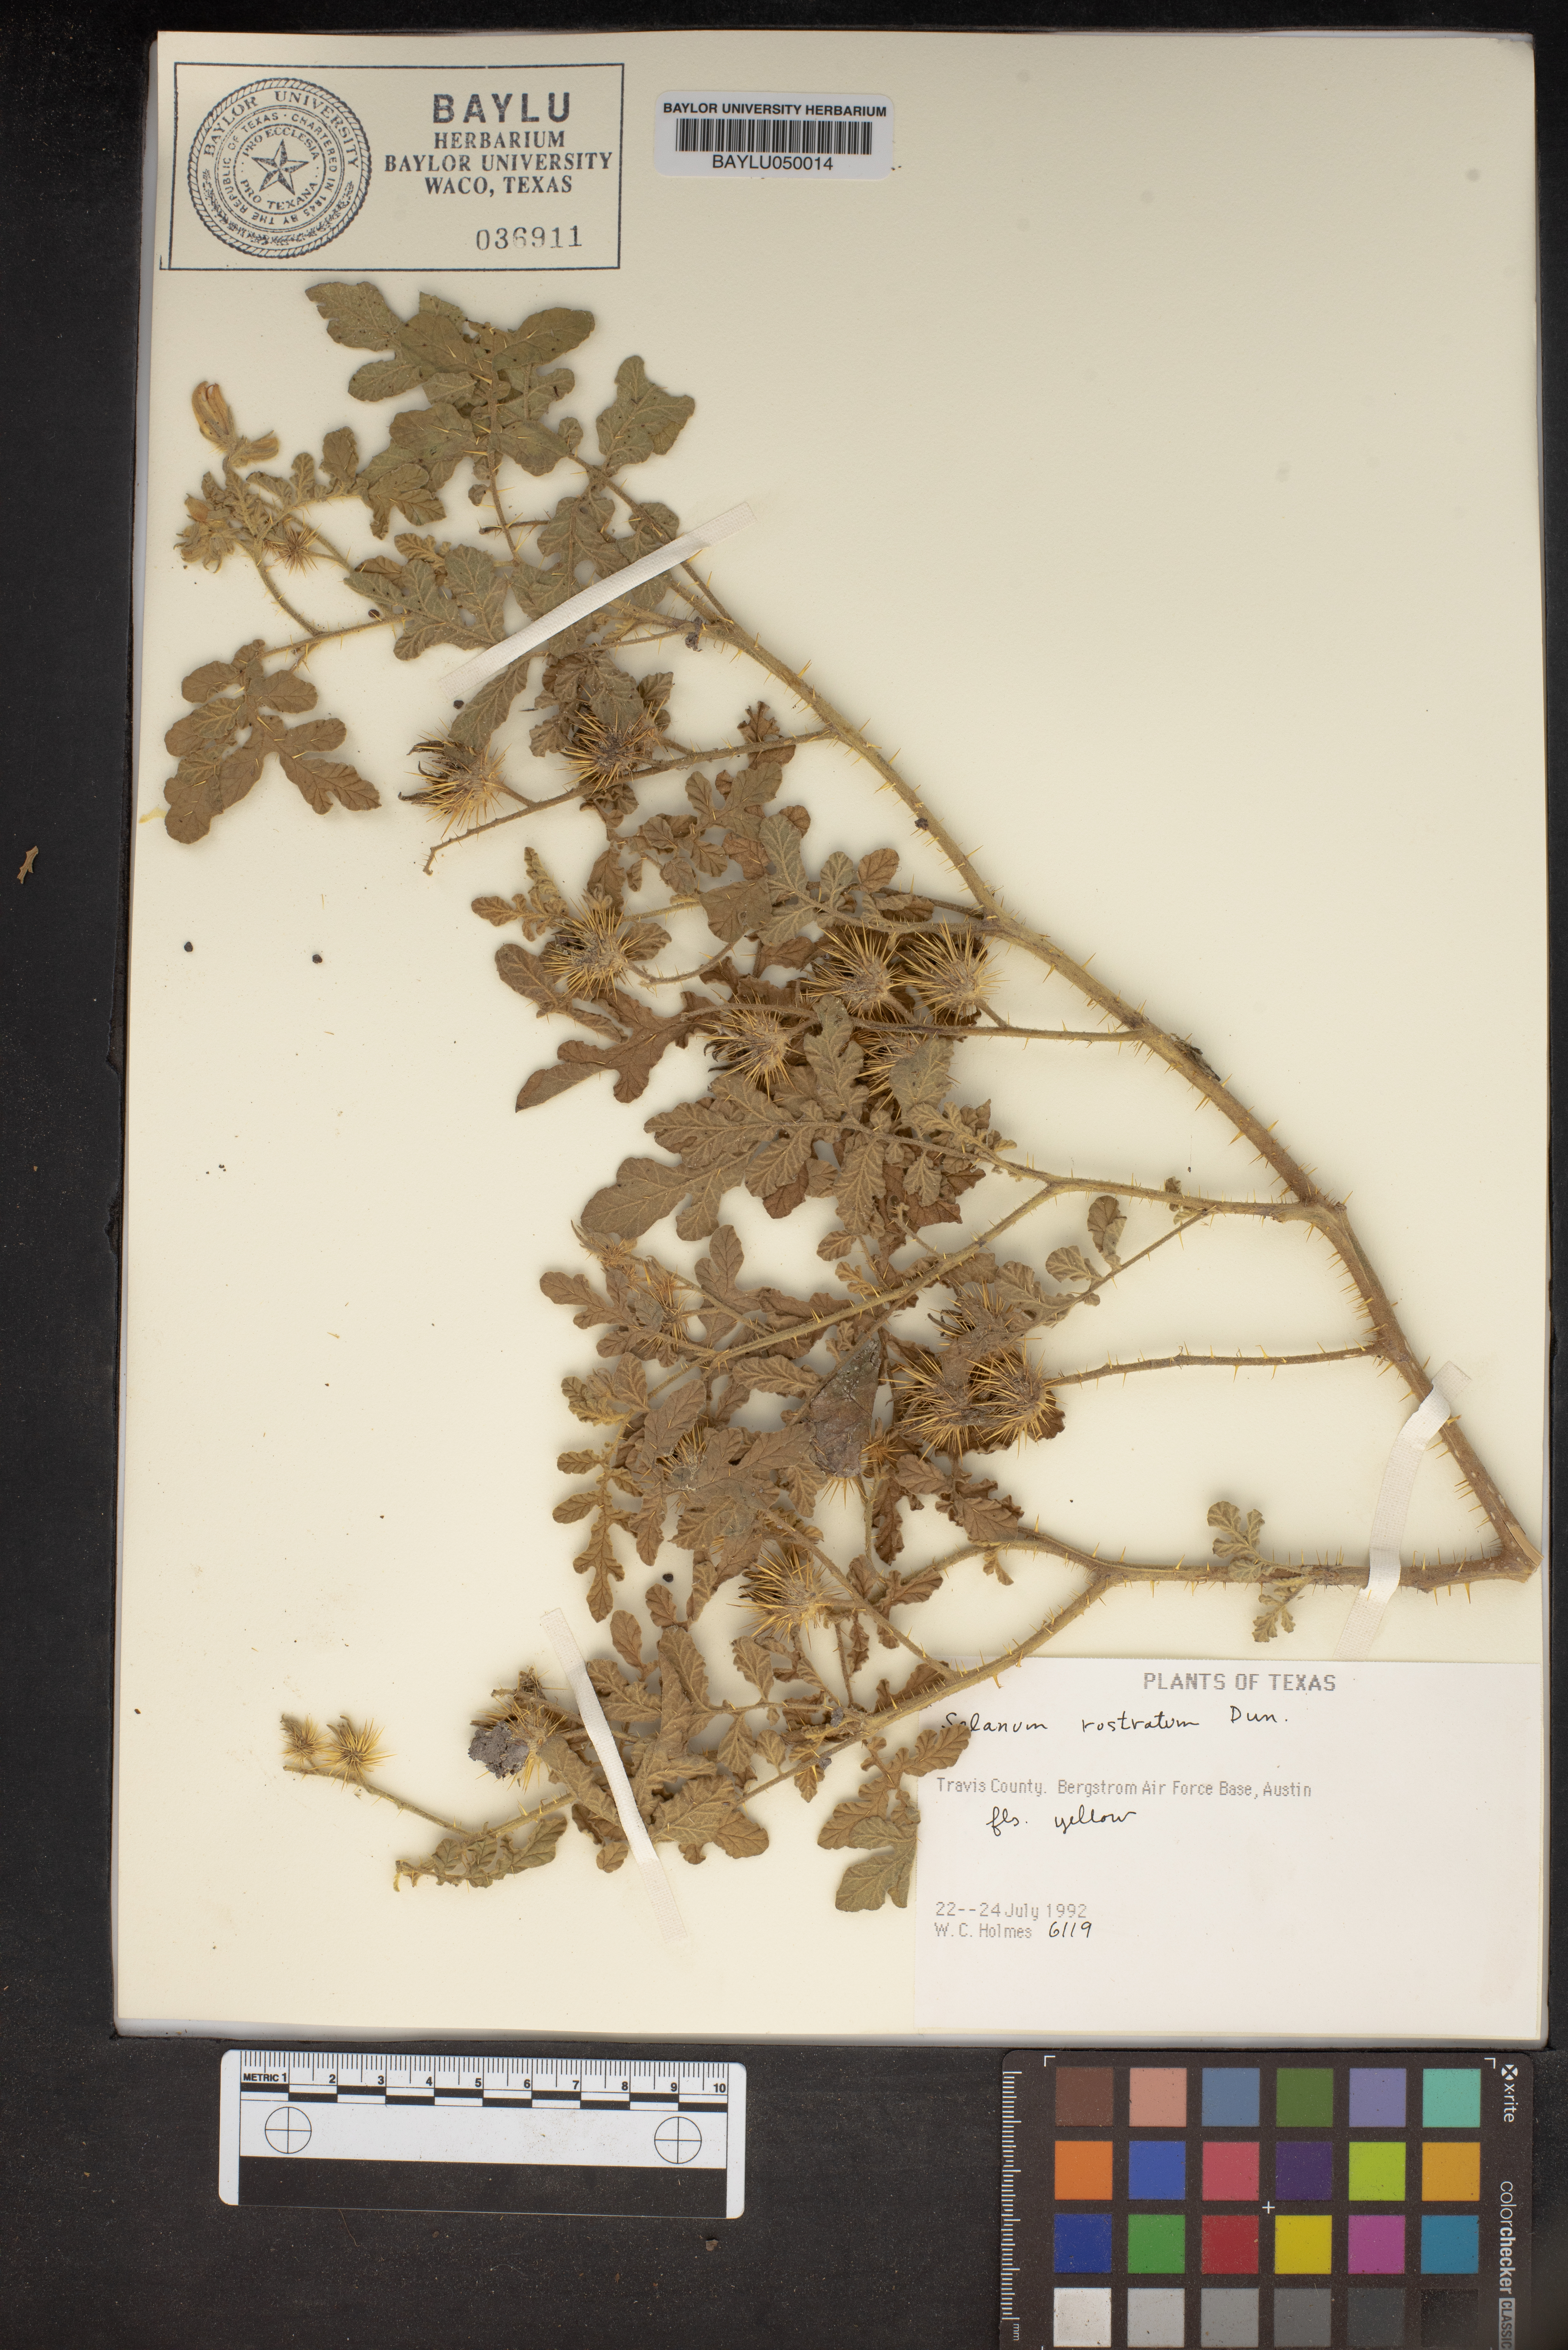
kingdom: Plantae
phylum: Tracheophyta
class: Magnoliopsida
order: Solanales
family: Solanaceae
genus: Solanum
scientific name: Solanum angustifolium
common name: Buffalobur nightshade
